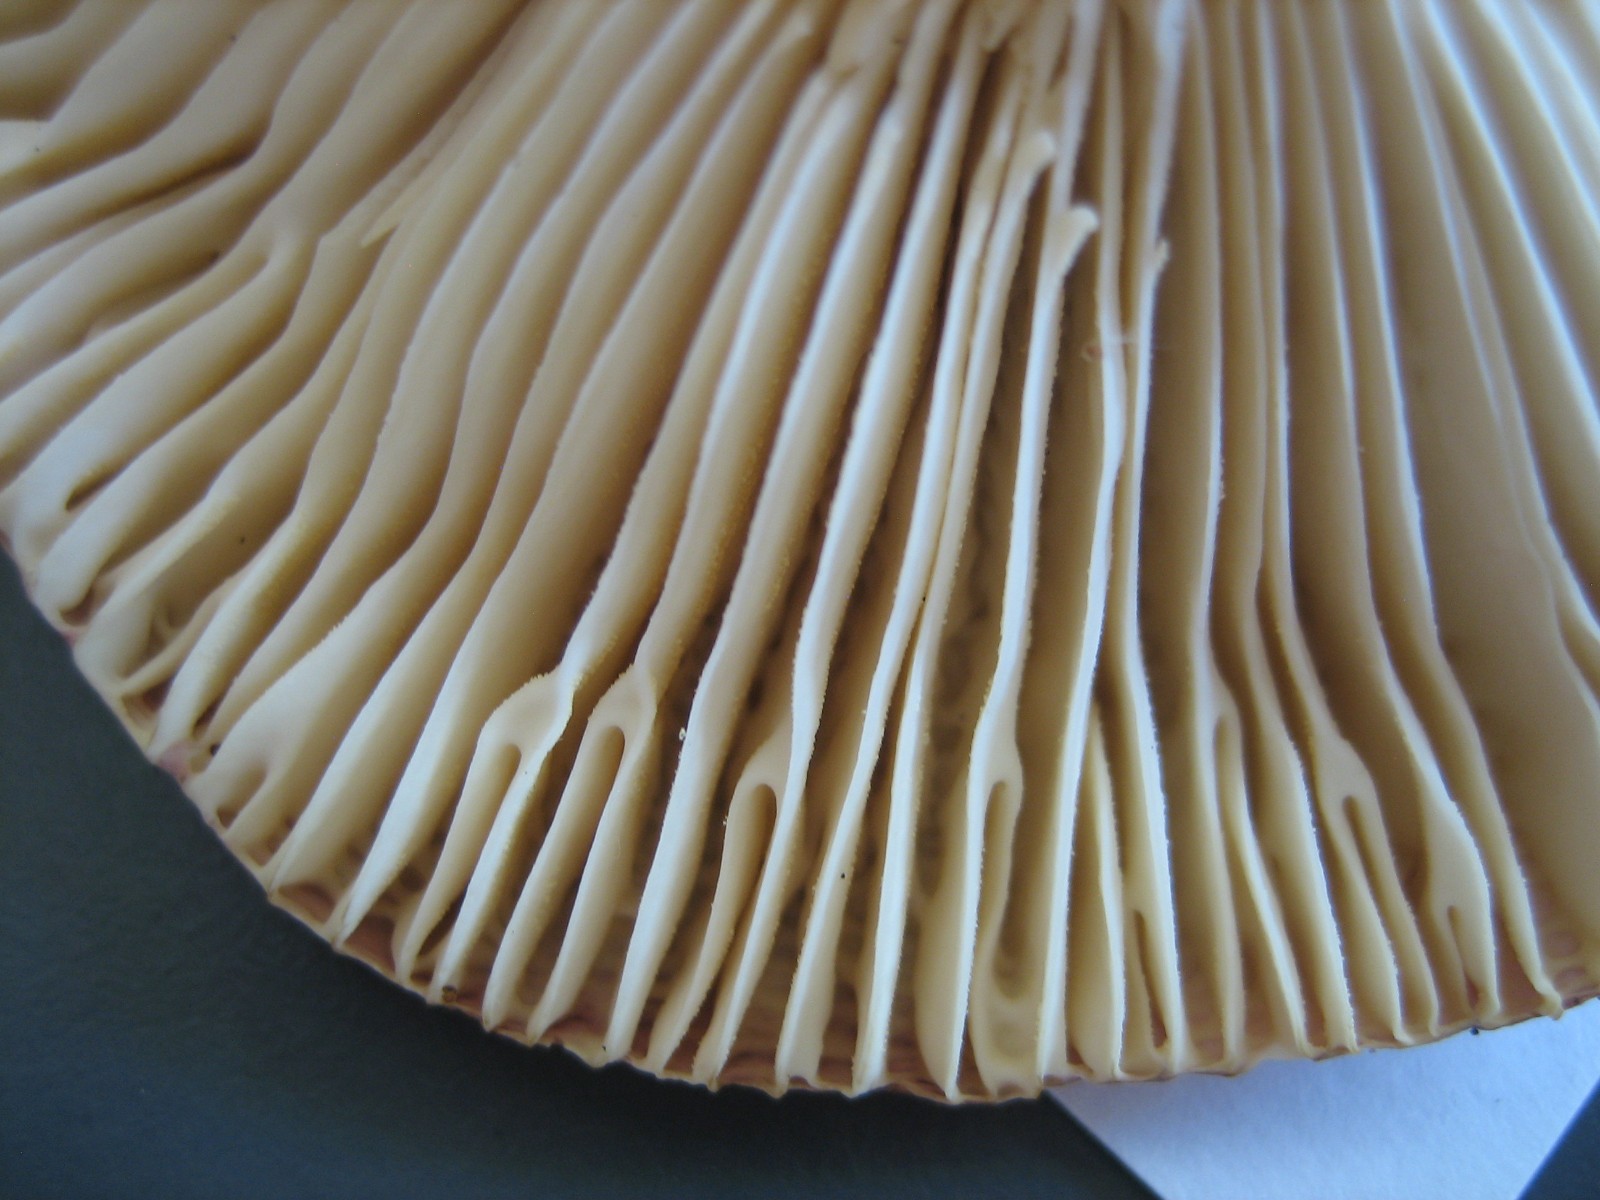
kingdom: Fungi
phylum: Basidiomycota
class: Agaricomycetes
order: Russulales
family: Russulaceae
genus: Russula
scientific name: Russula
